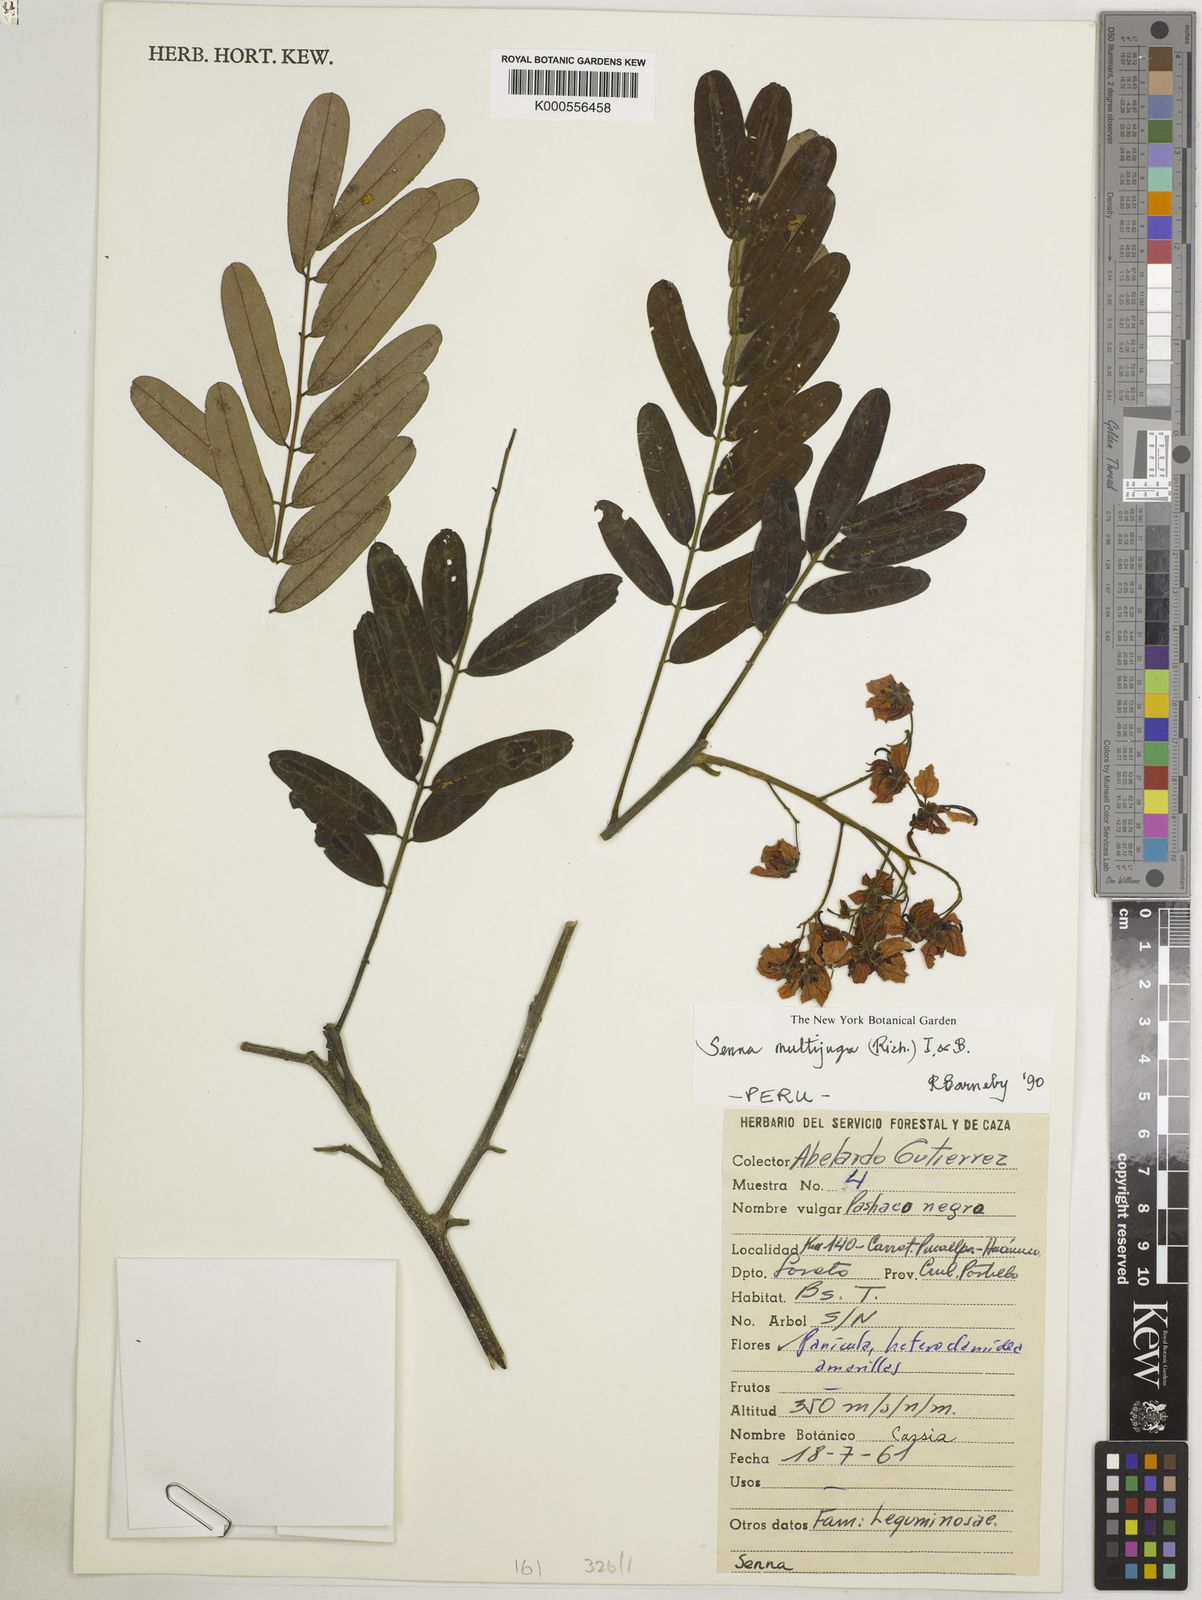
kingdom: Plantae
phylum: Tracheophyta
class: Magnoliopsida
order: Fabales
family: Fabaceae
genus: Senna
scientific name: Senna multijuga
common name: False sicklepod
